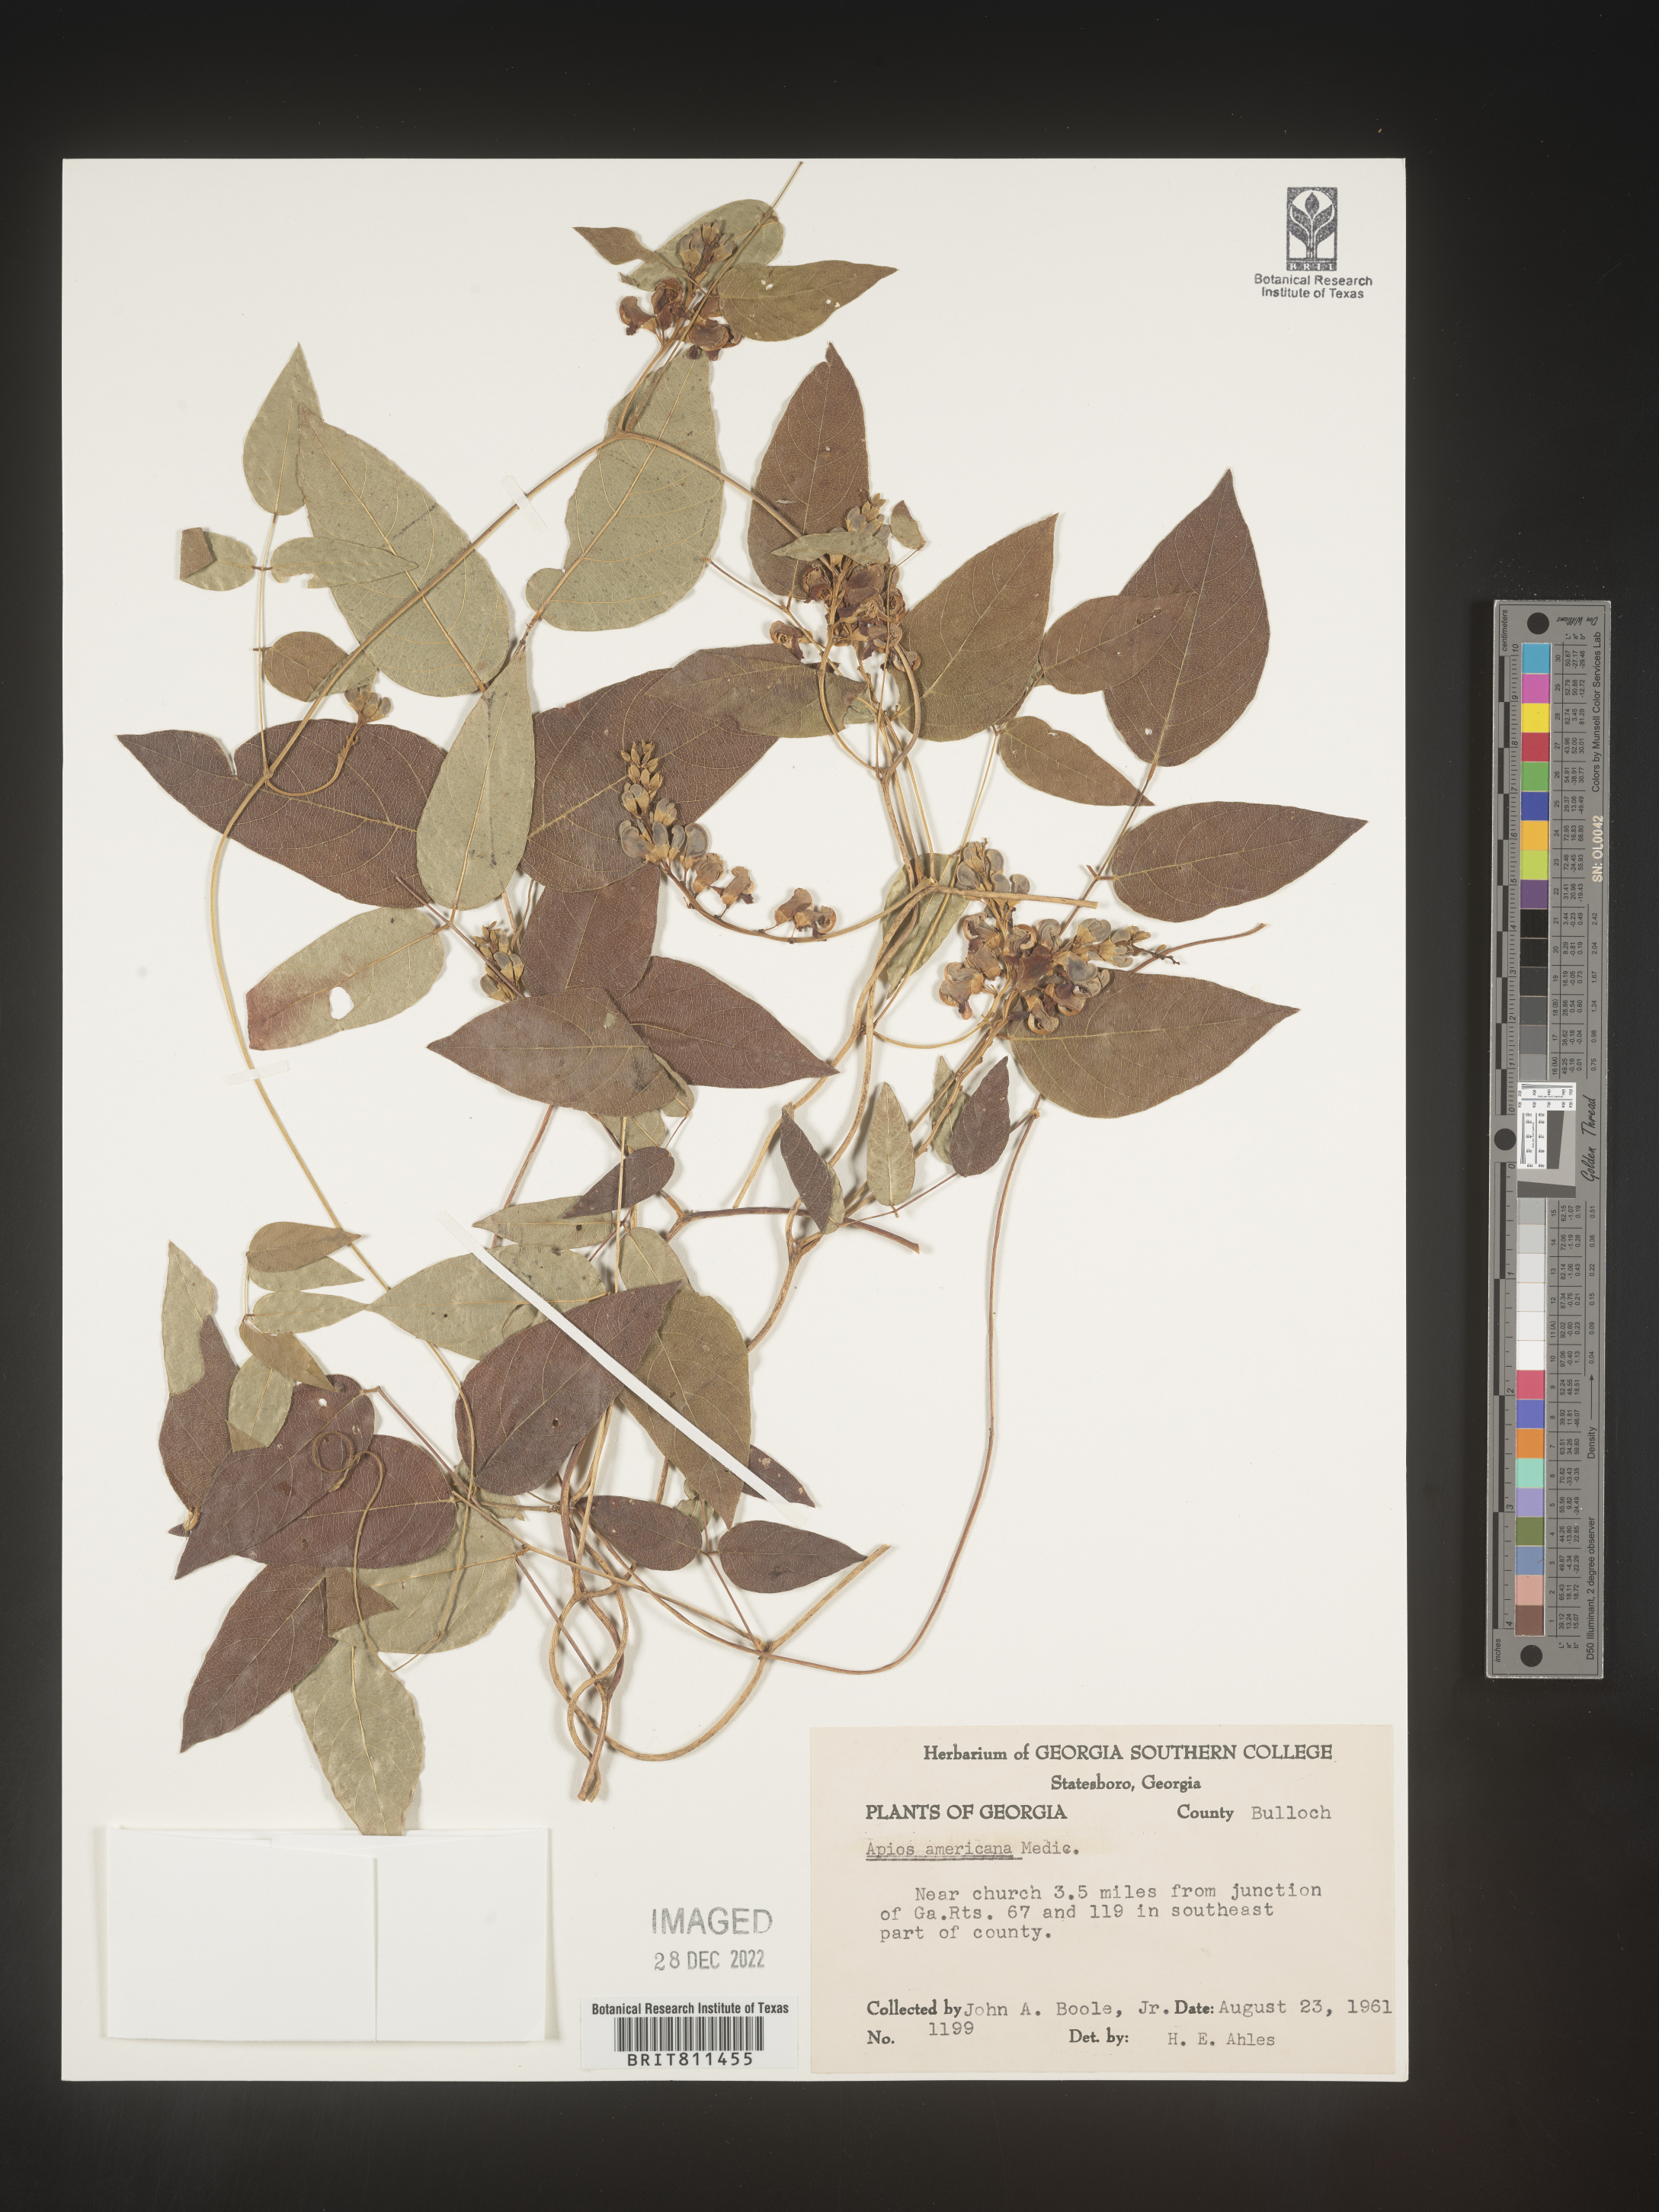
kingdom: Plantae
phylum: Tracheophyta
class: Magnoliopsida
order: Fabales
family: Fabaceae
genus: Apios
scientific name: Apios americana
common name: American potato-bean
